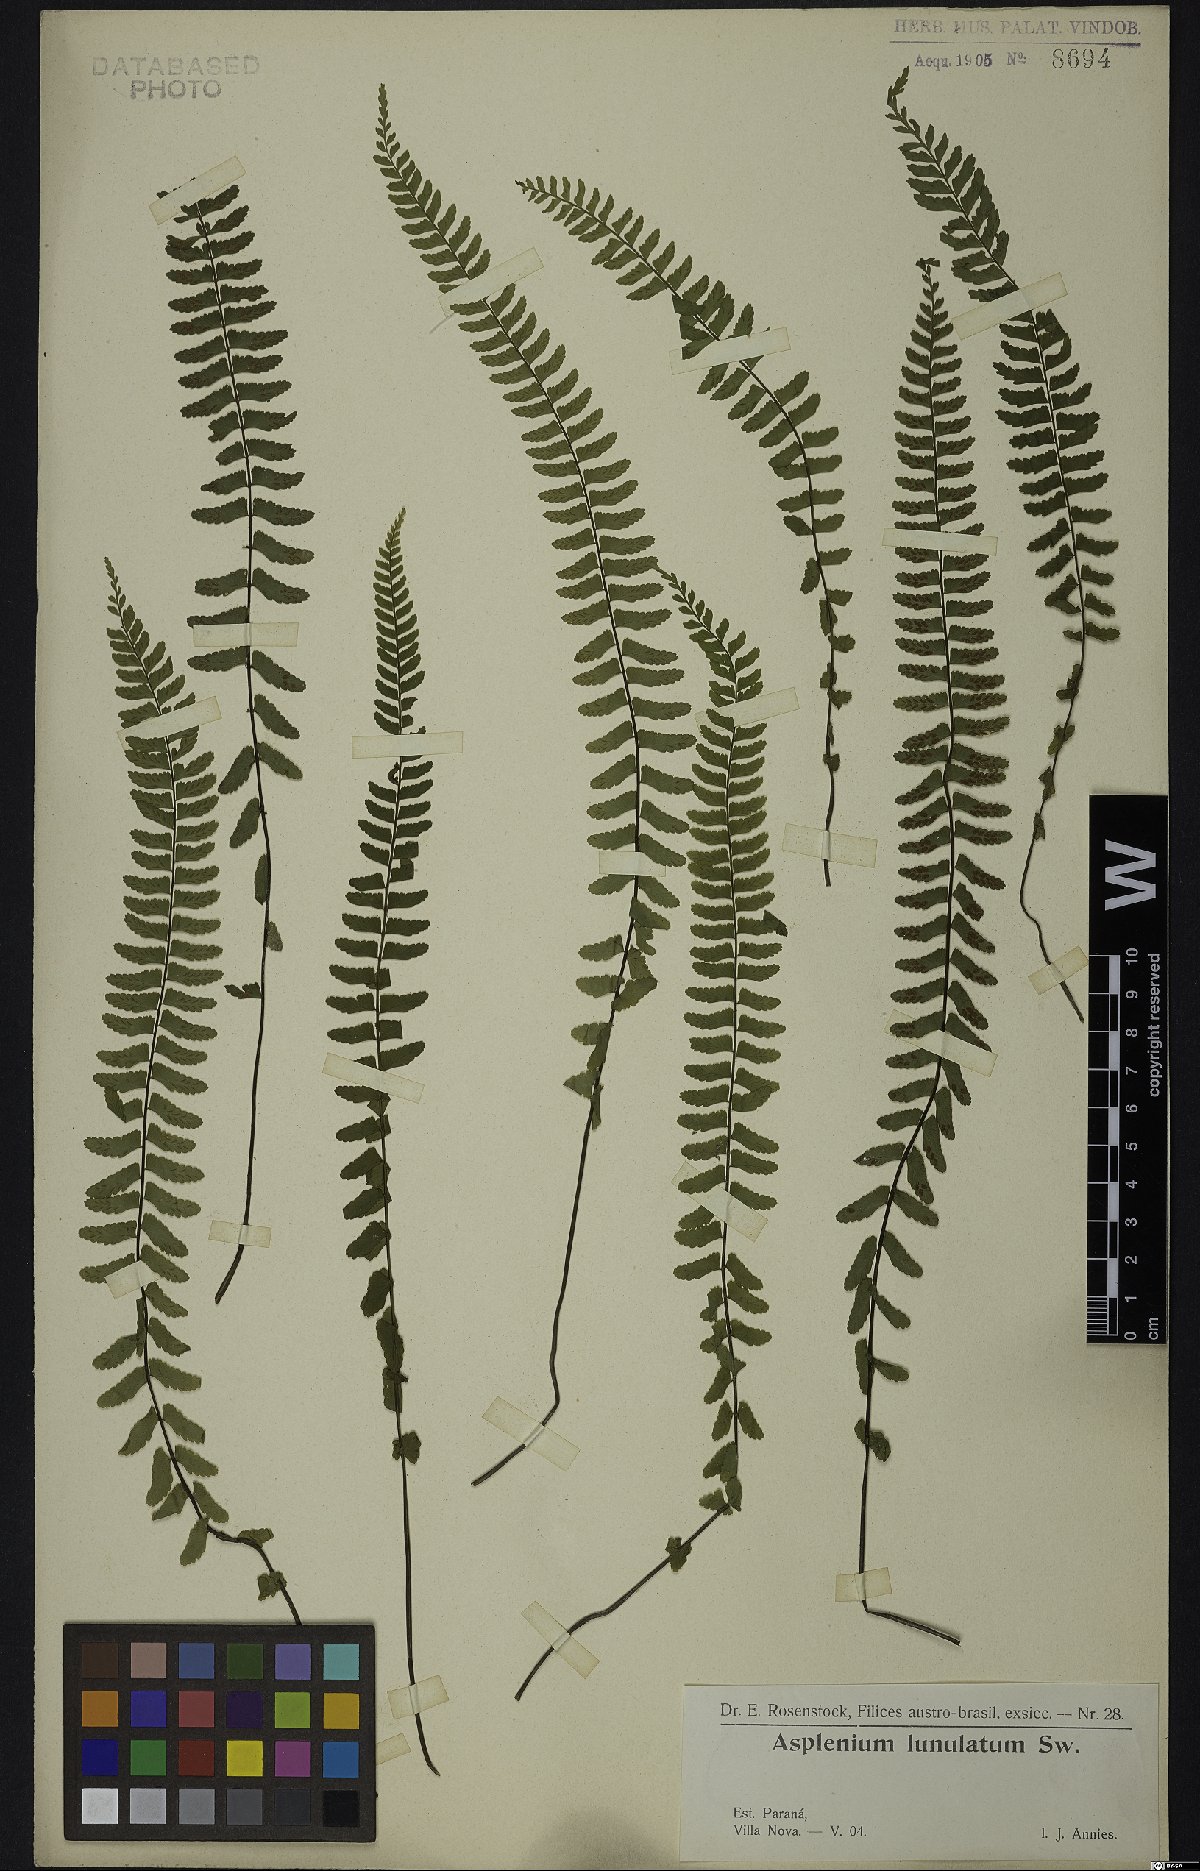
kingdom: Plantae
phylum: Tracheophyta
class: Polypodiopsida
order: Polypodiales
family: Aspleniaceae
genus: Asplenium
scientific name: Asplenium lunulatum
